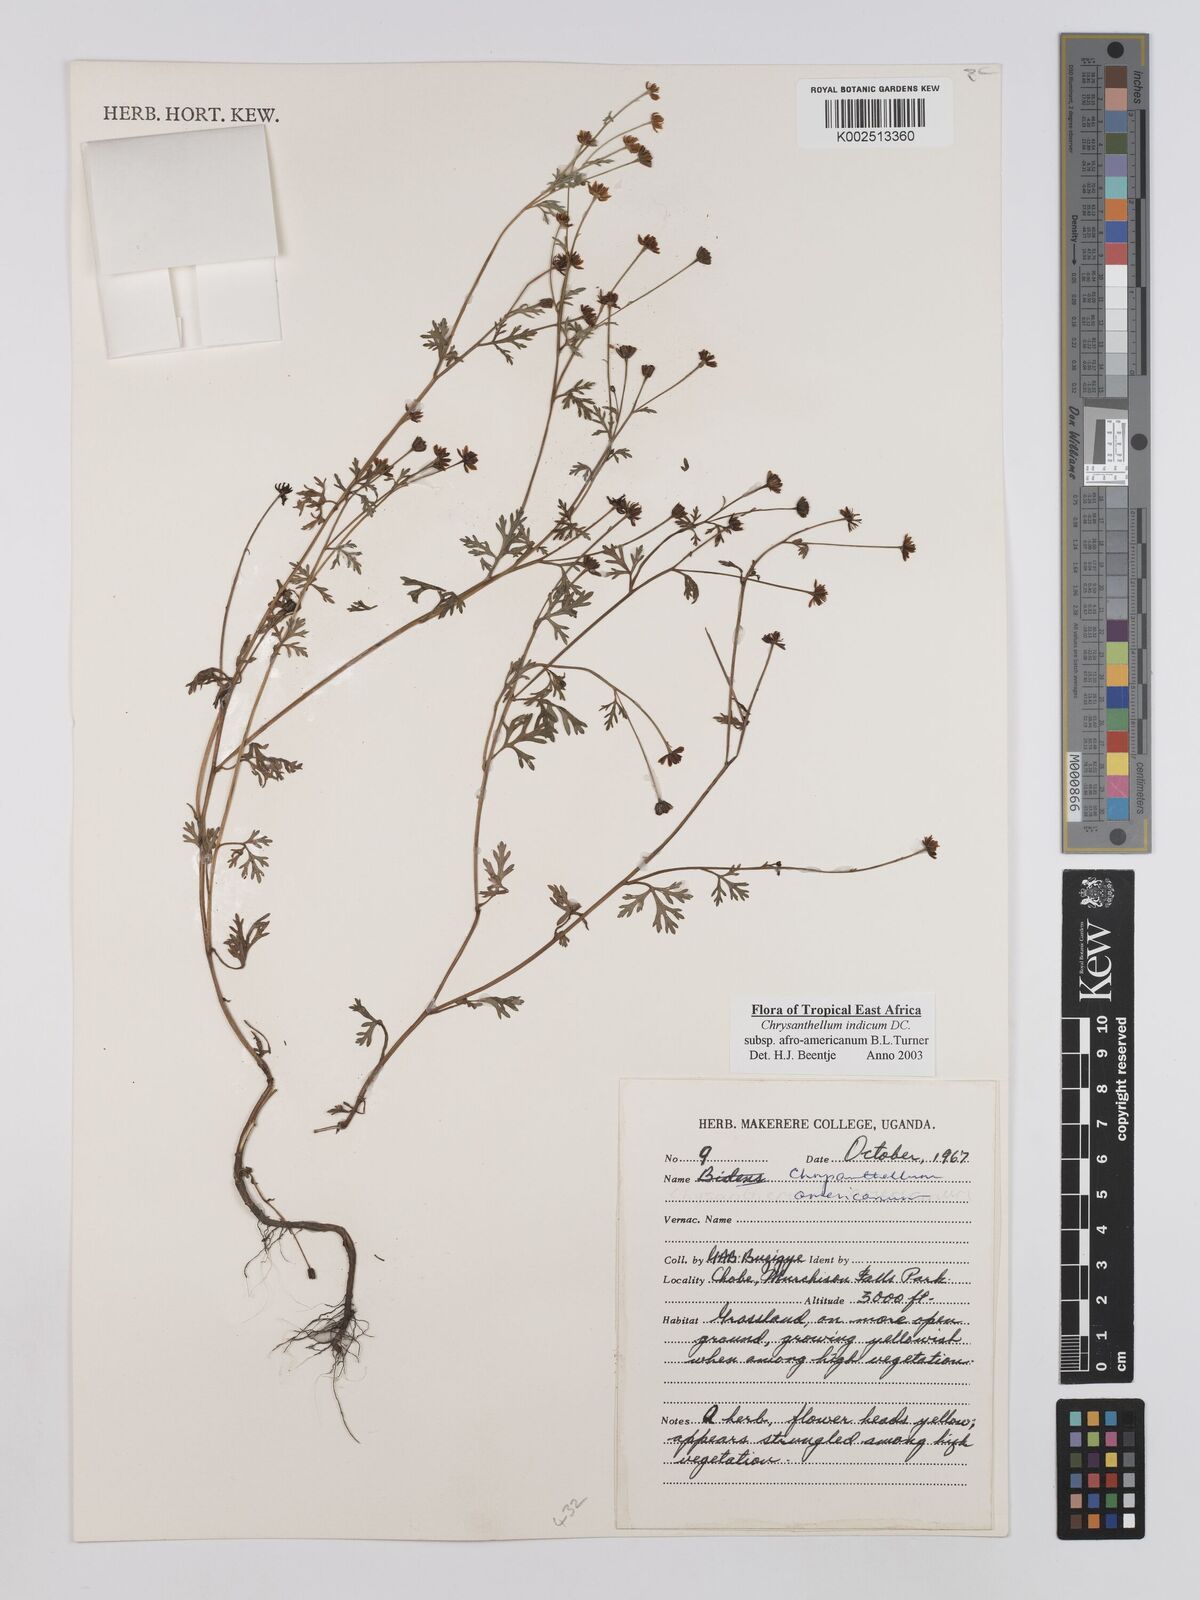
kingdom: Plantae
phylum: Tracheophyta
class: Magnoliopsida
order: Asterales
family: Asteraceae
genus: Chrysanthellum
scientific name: Chrysanthellum indicum
